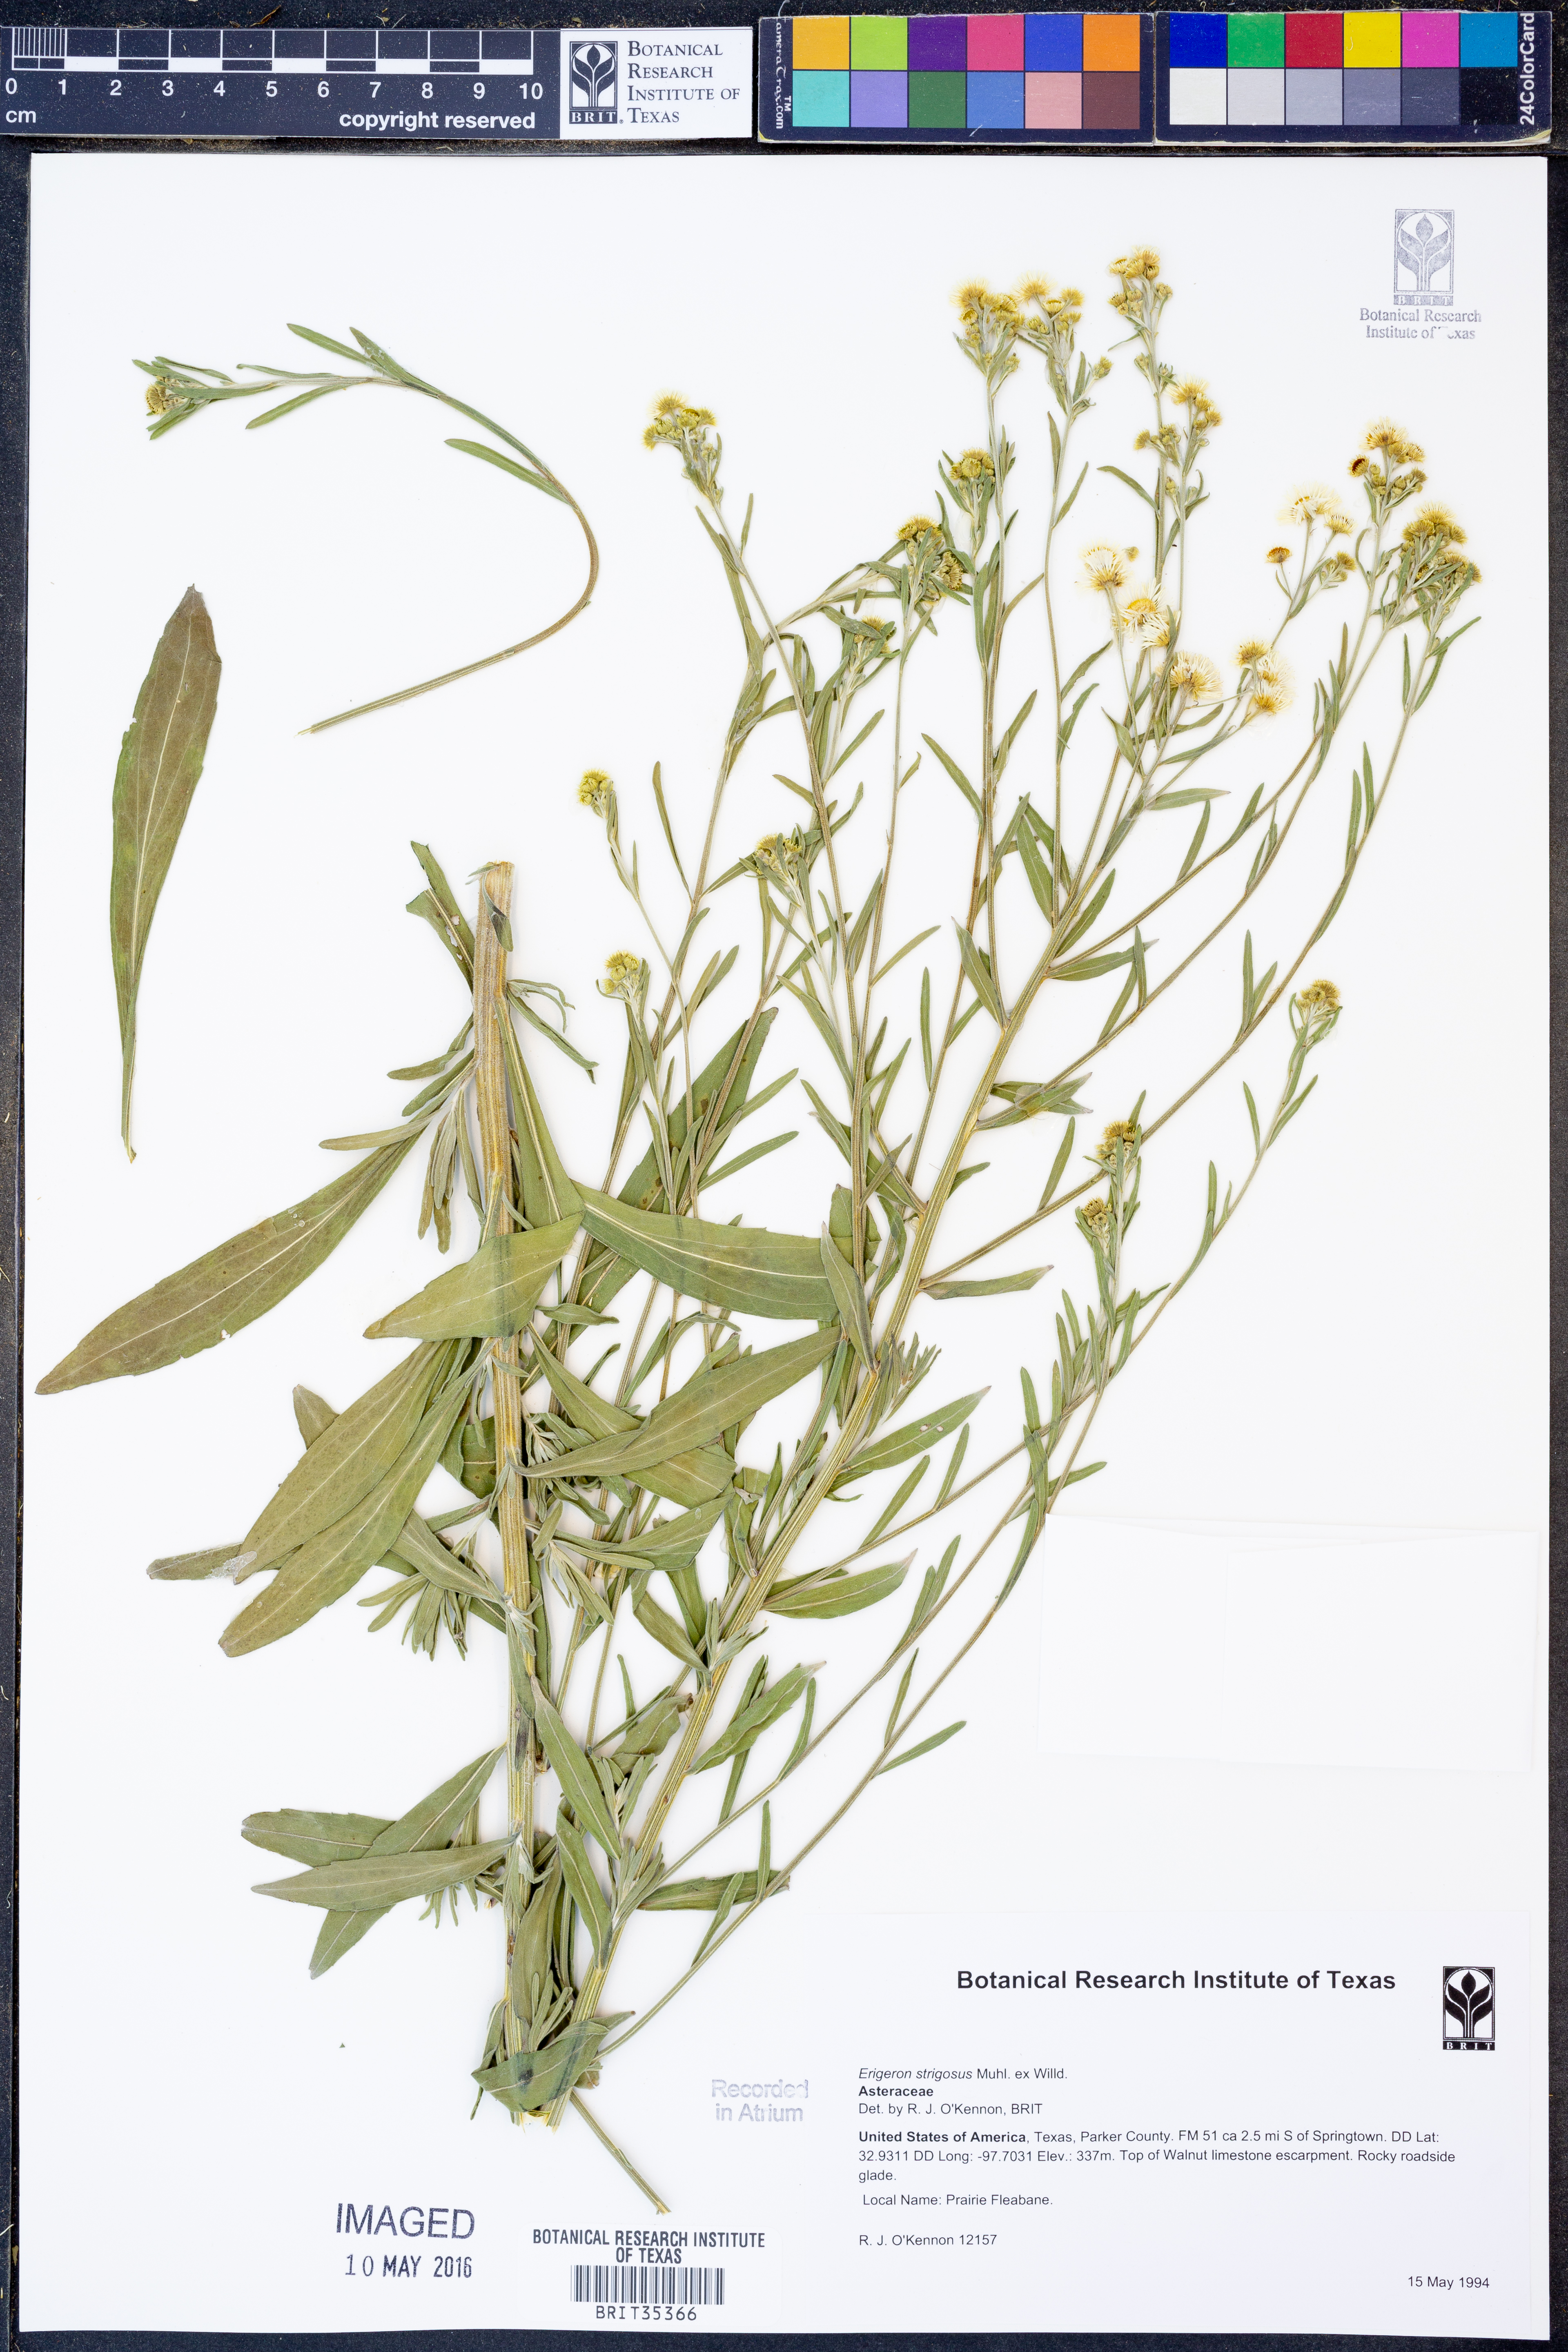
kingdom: Plantae
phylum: Tracheophyta
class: Magnoliopsida
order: Asterales
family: Asteraceae
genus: Erigeron
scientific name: Erigeron strigosus
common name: Common eastern fleabane
